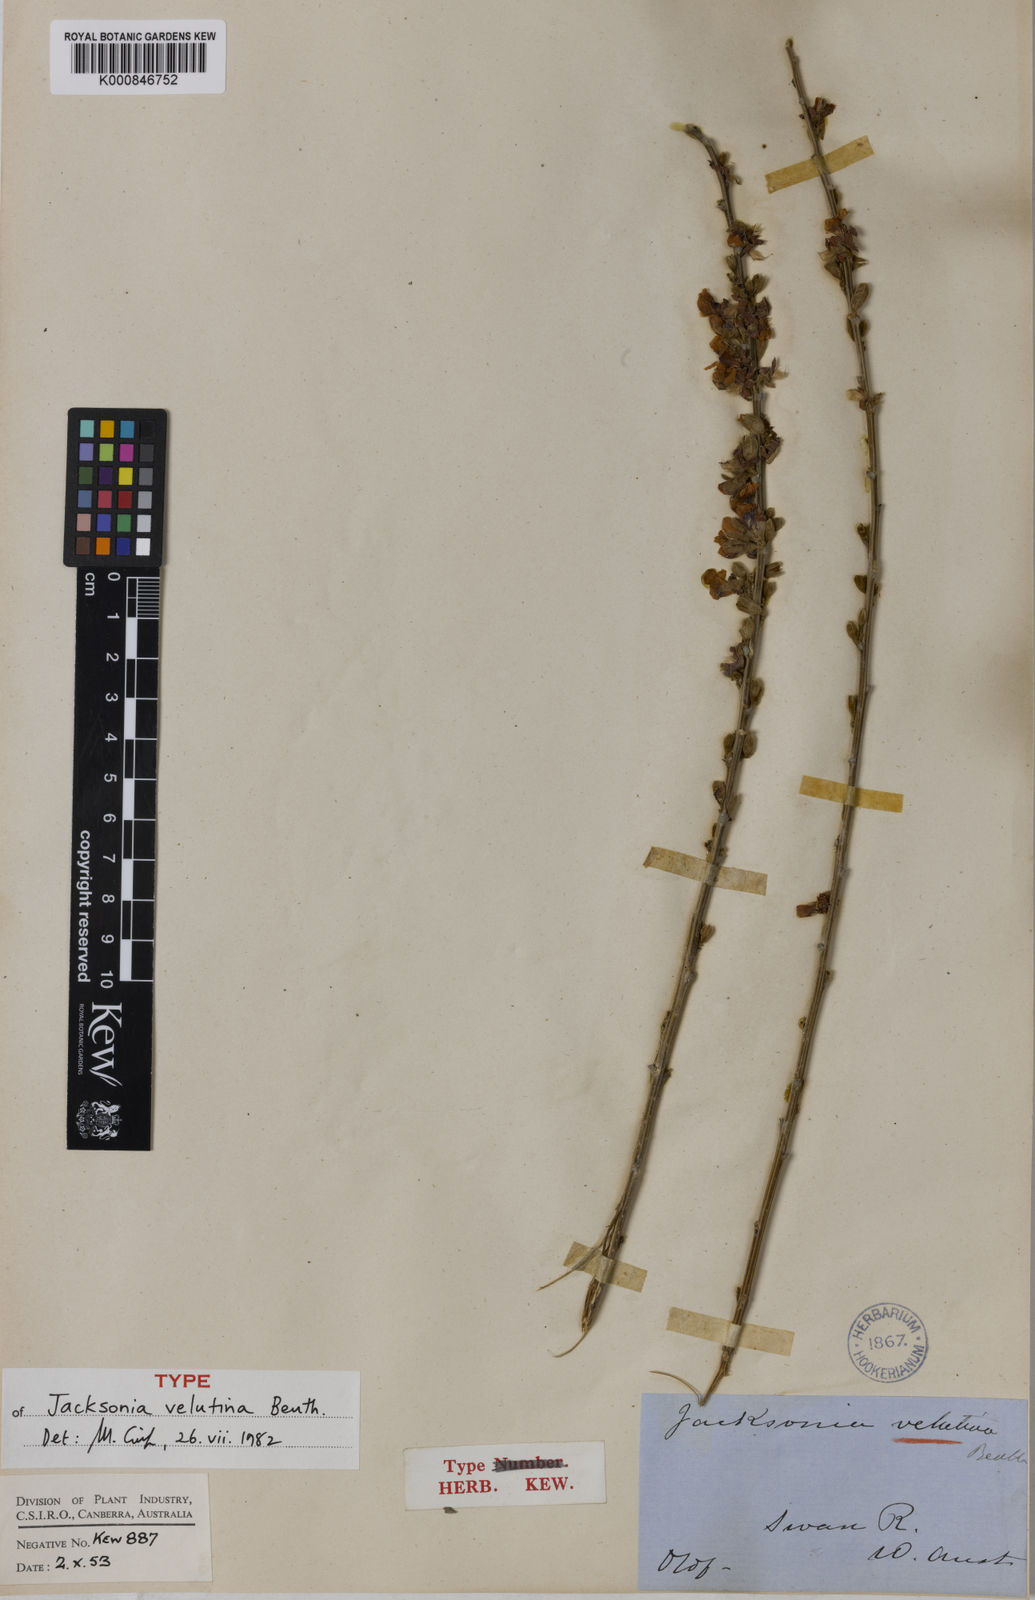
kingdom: Plantae
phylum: Tracheophyta
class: Magnoliopsida
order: Fabales
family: Fabaceae
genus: Jacksonia
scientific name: Jacksonia velutina
